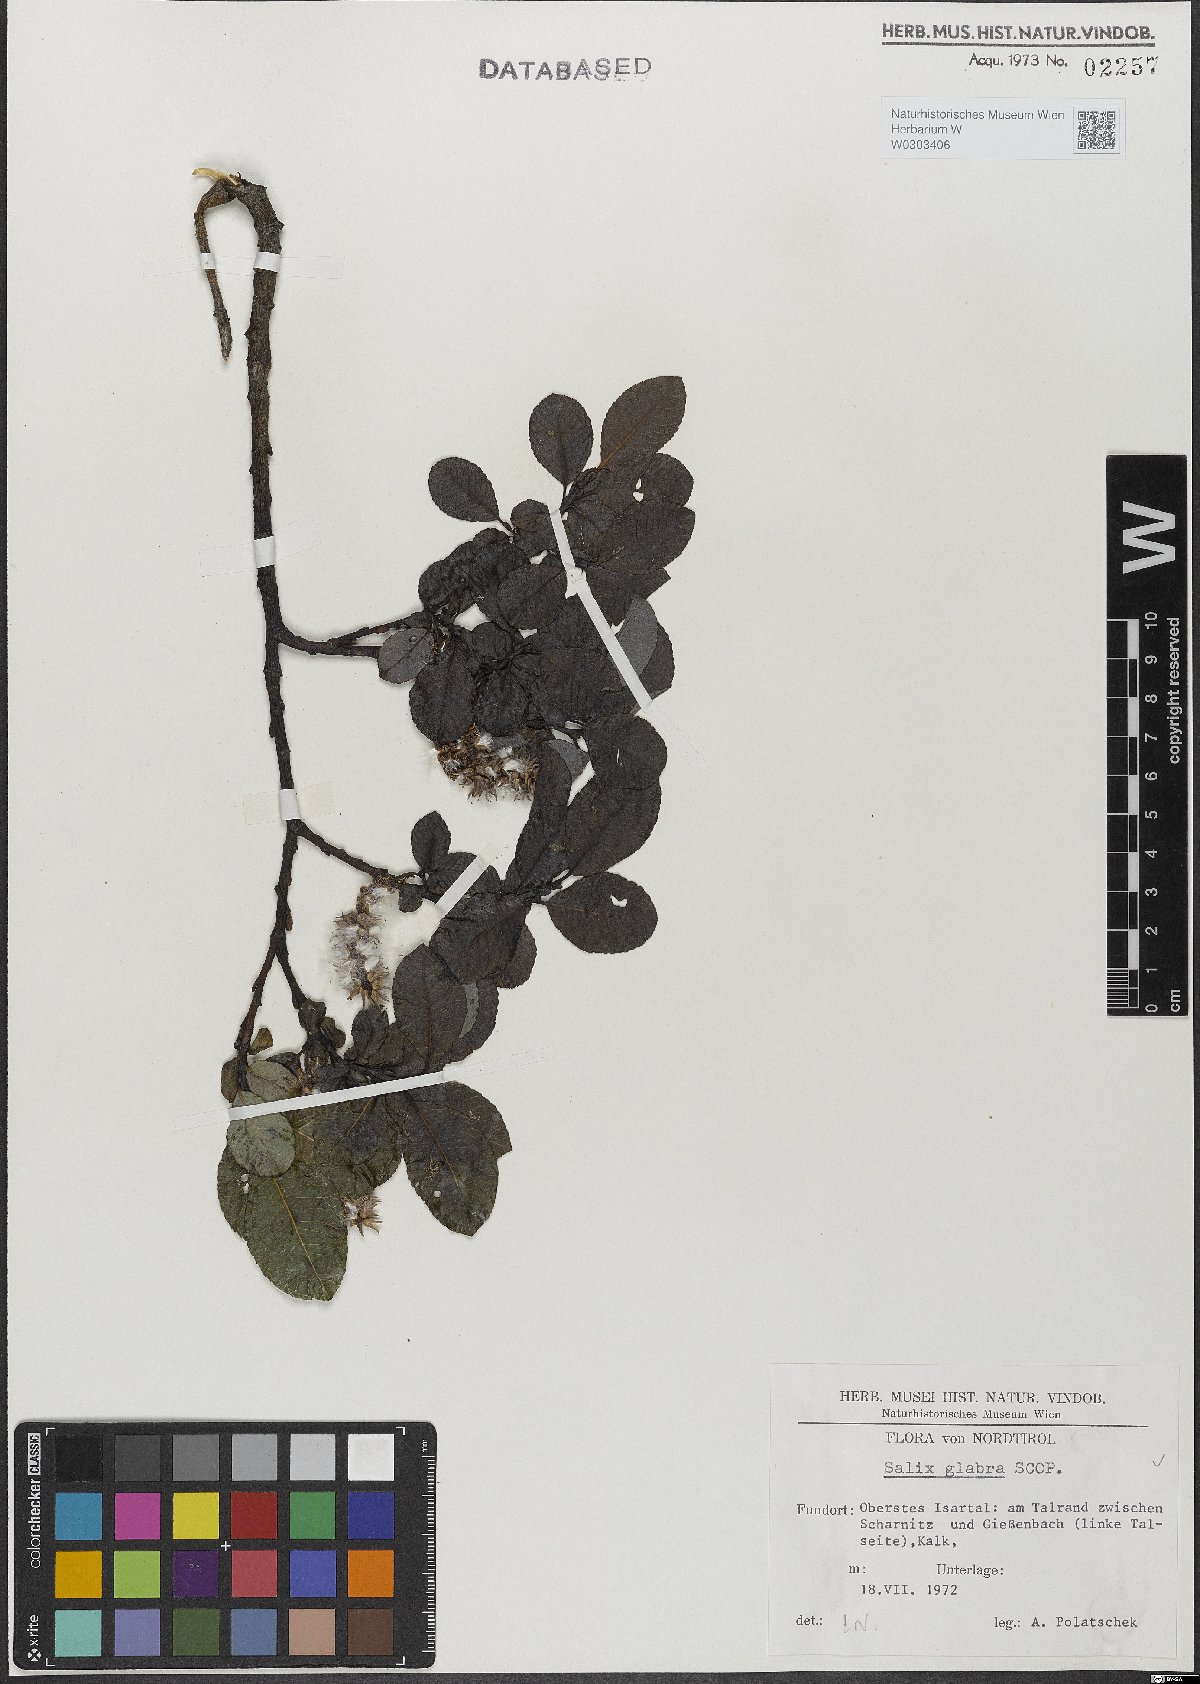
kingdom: Plantae
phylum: Tracheophyta
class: Magnoliopsida
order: Malpighiales
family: Salicaceae
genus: Salix
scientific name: Salix glabra
